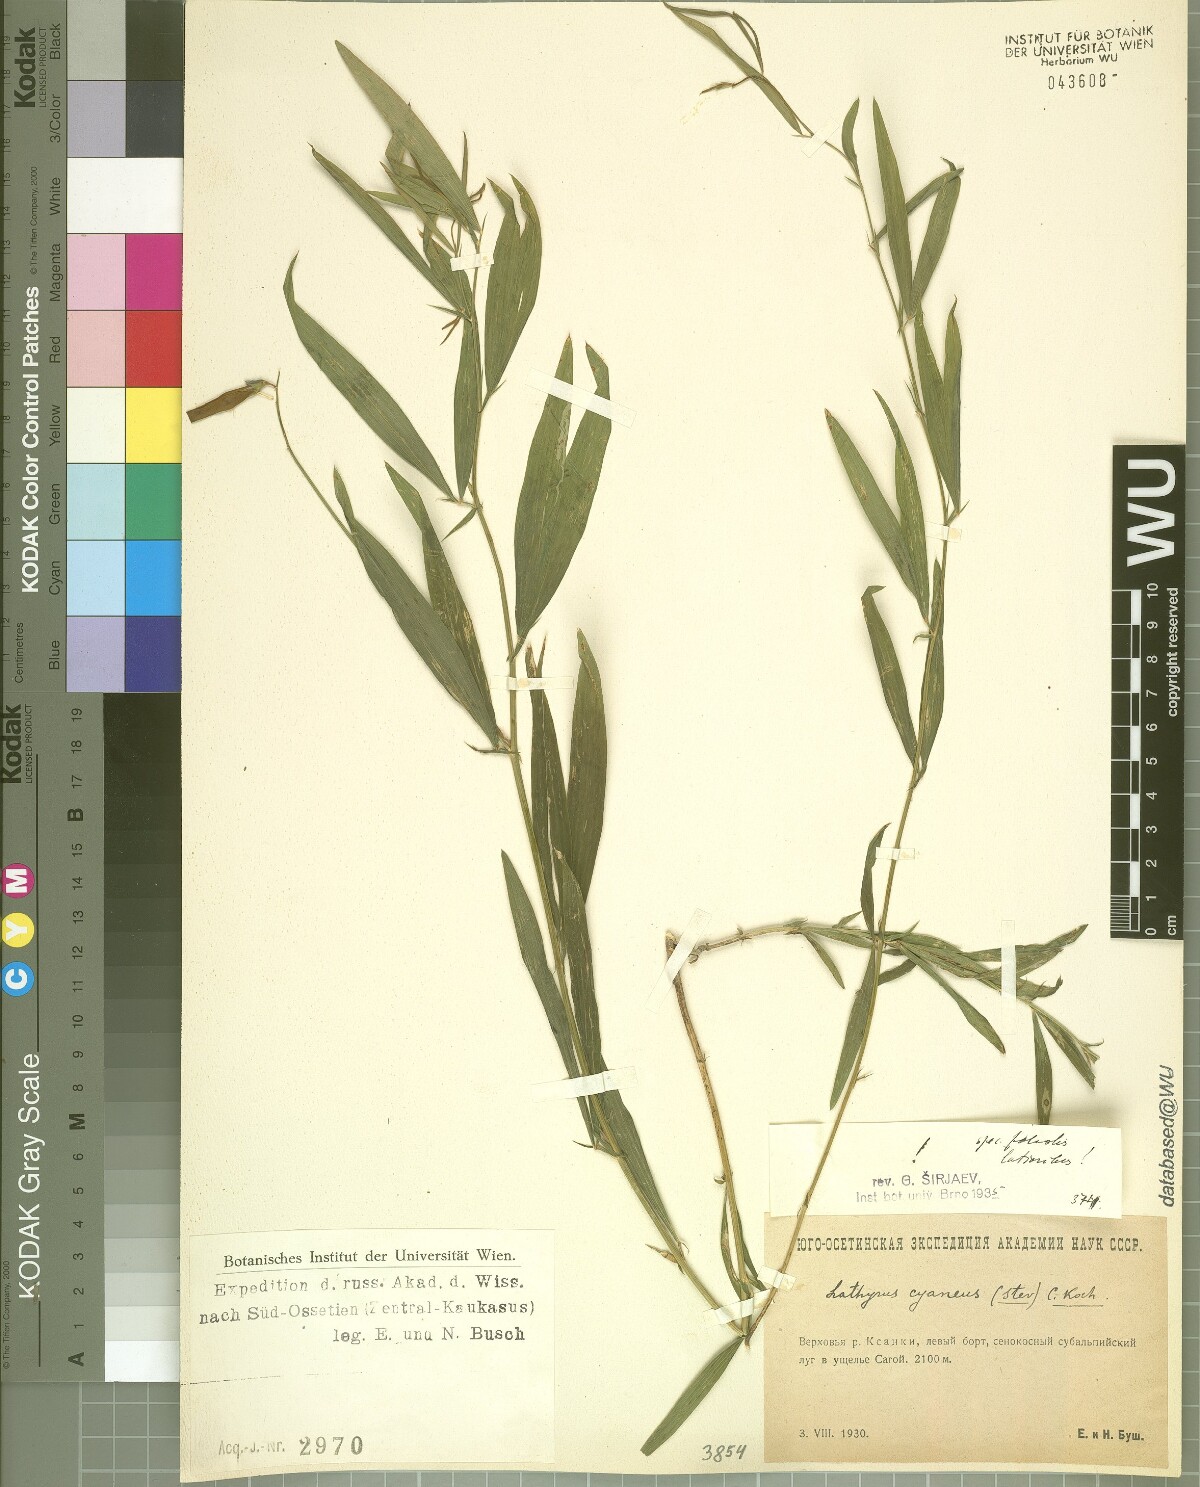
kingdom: Plantae
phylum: Tracheophyta
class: Magnoliopsida
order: Fabales
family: Fabaceae
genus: Lathyrus
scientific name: Lathyrus cyaneus
